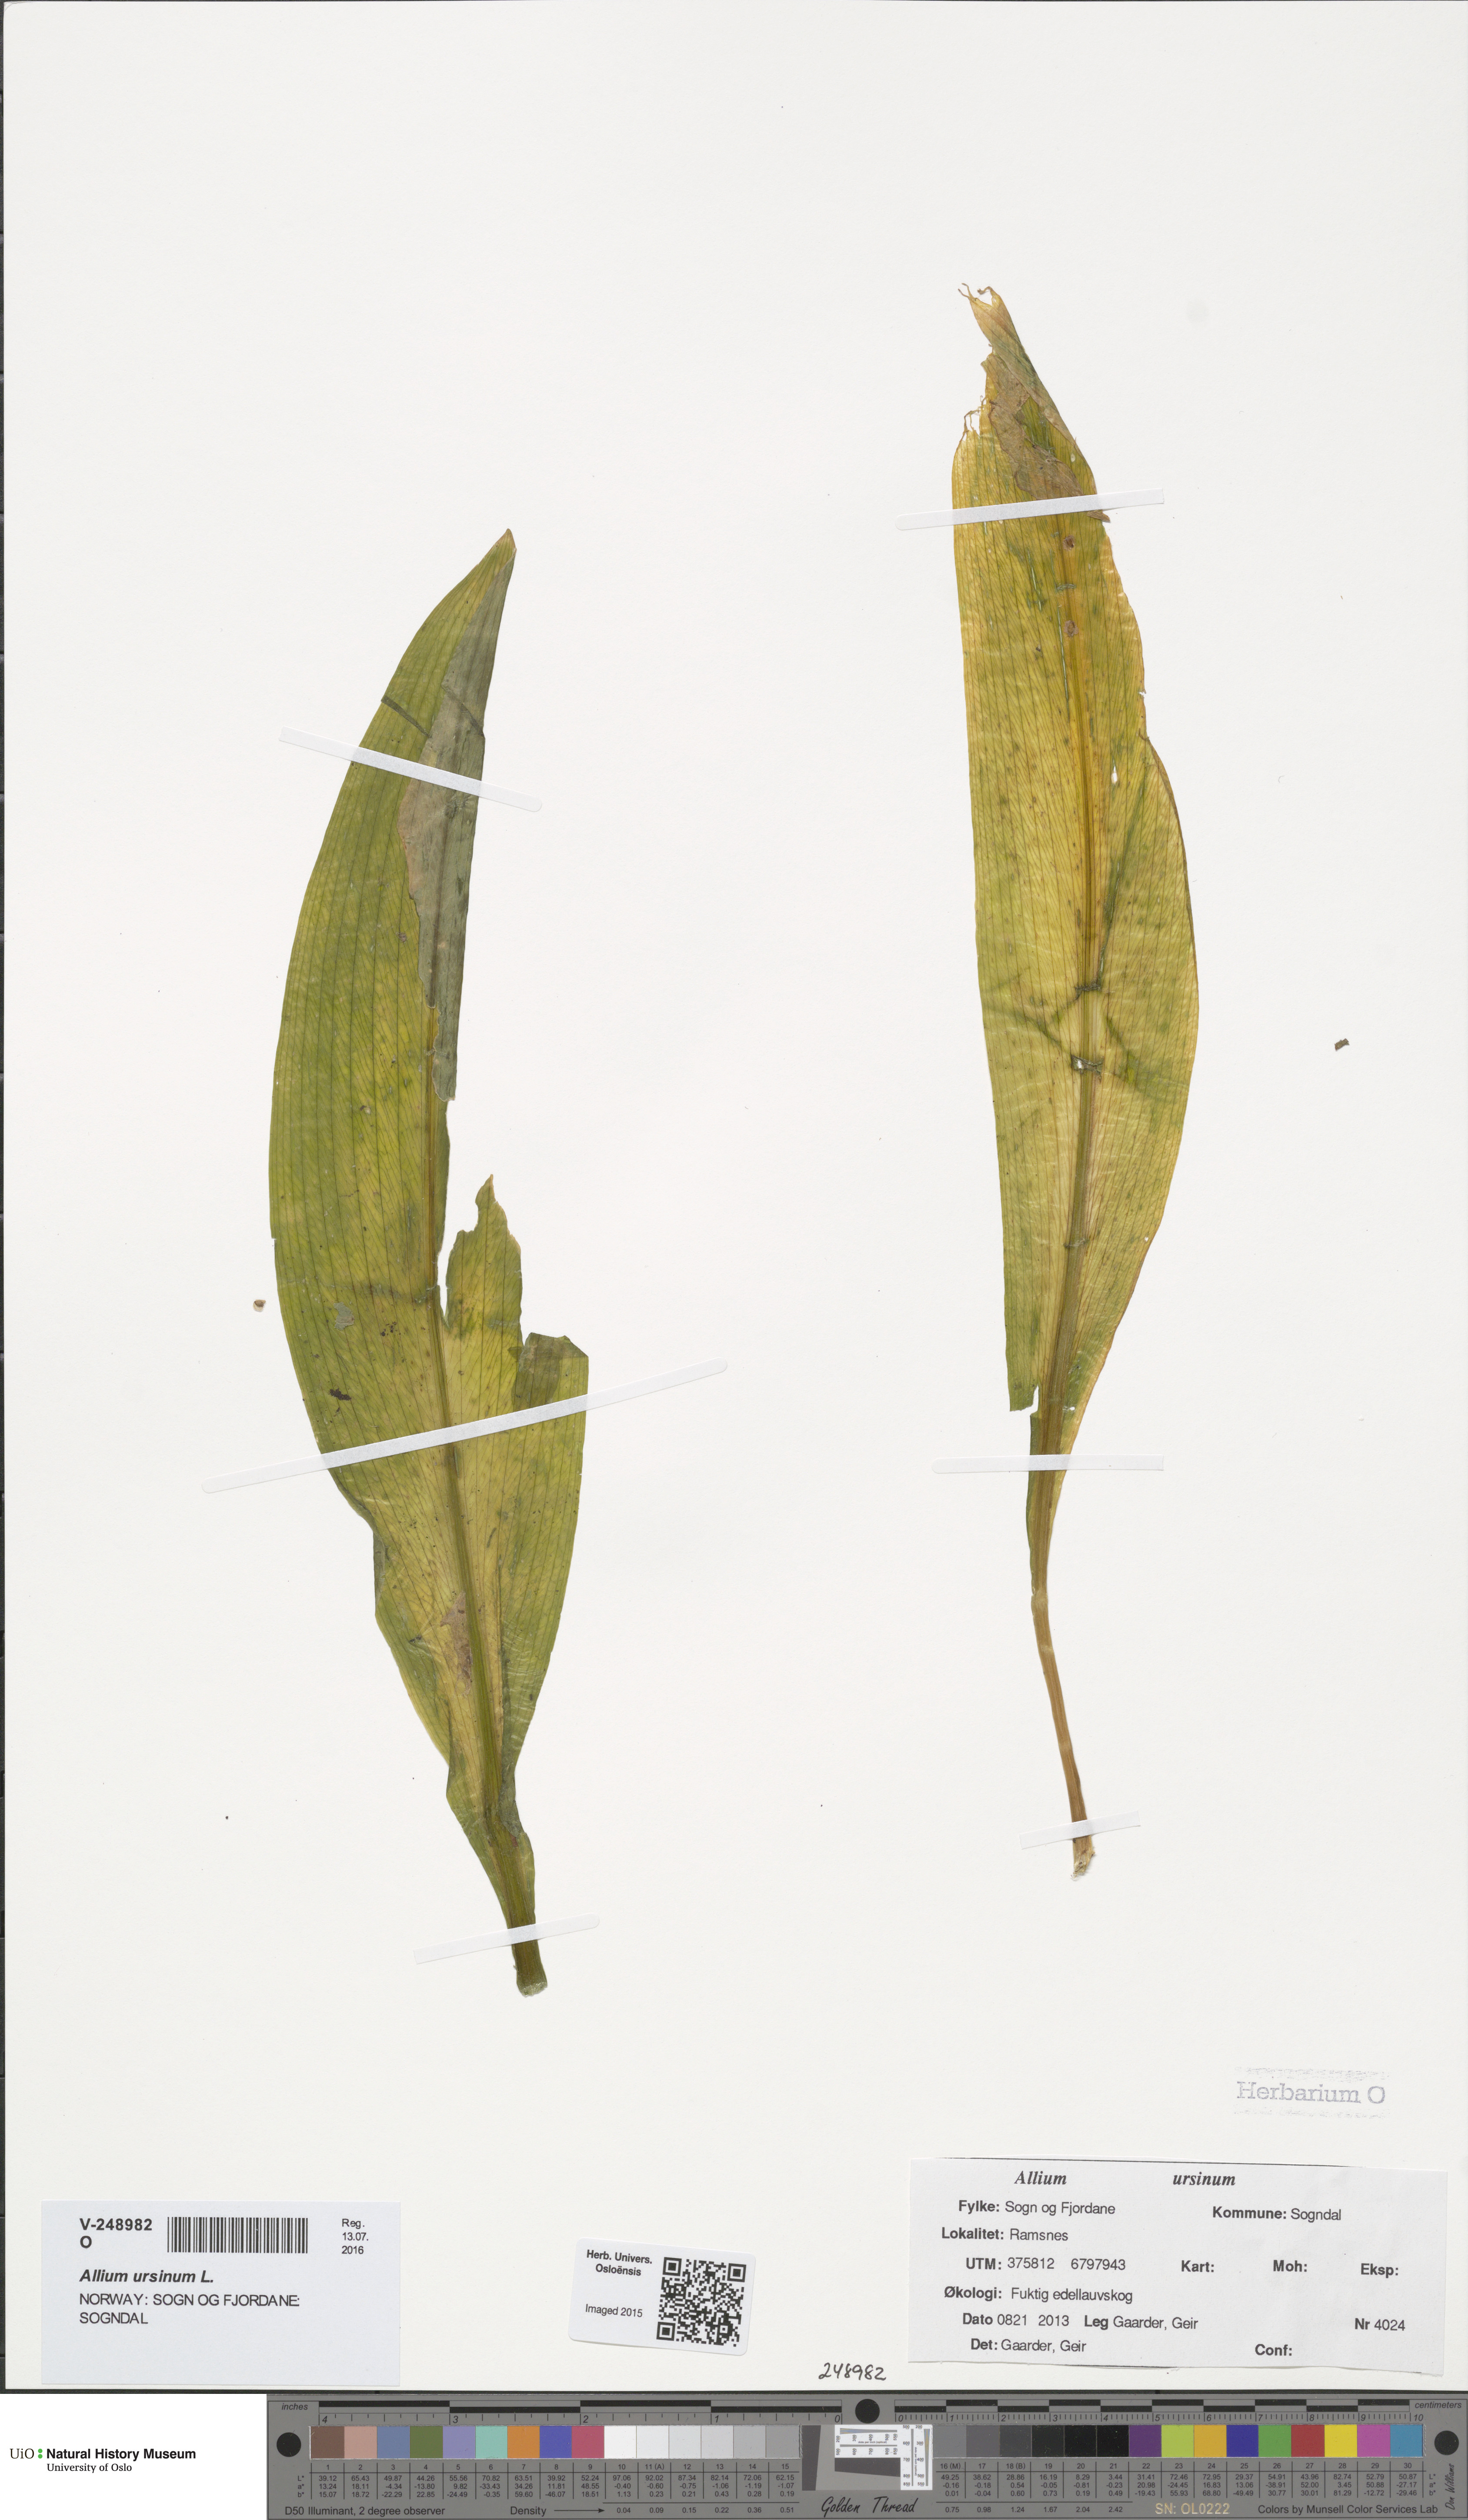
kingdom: Plantae
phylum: Tracheophyta
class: Liliopsida
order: Asparagales
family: Amaryllidaceae
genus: Allium
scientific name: Allium ursinum
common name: Ramsons
